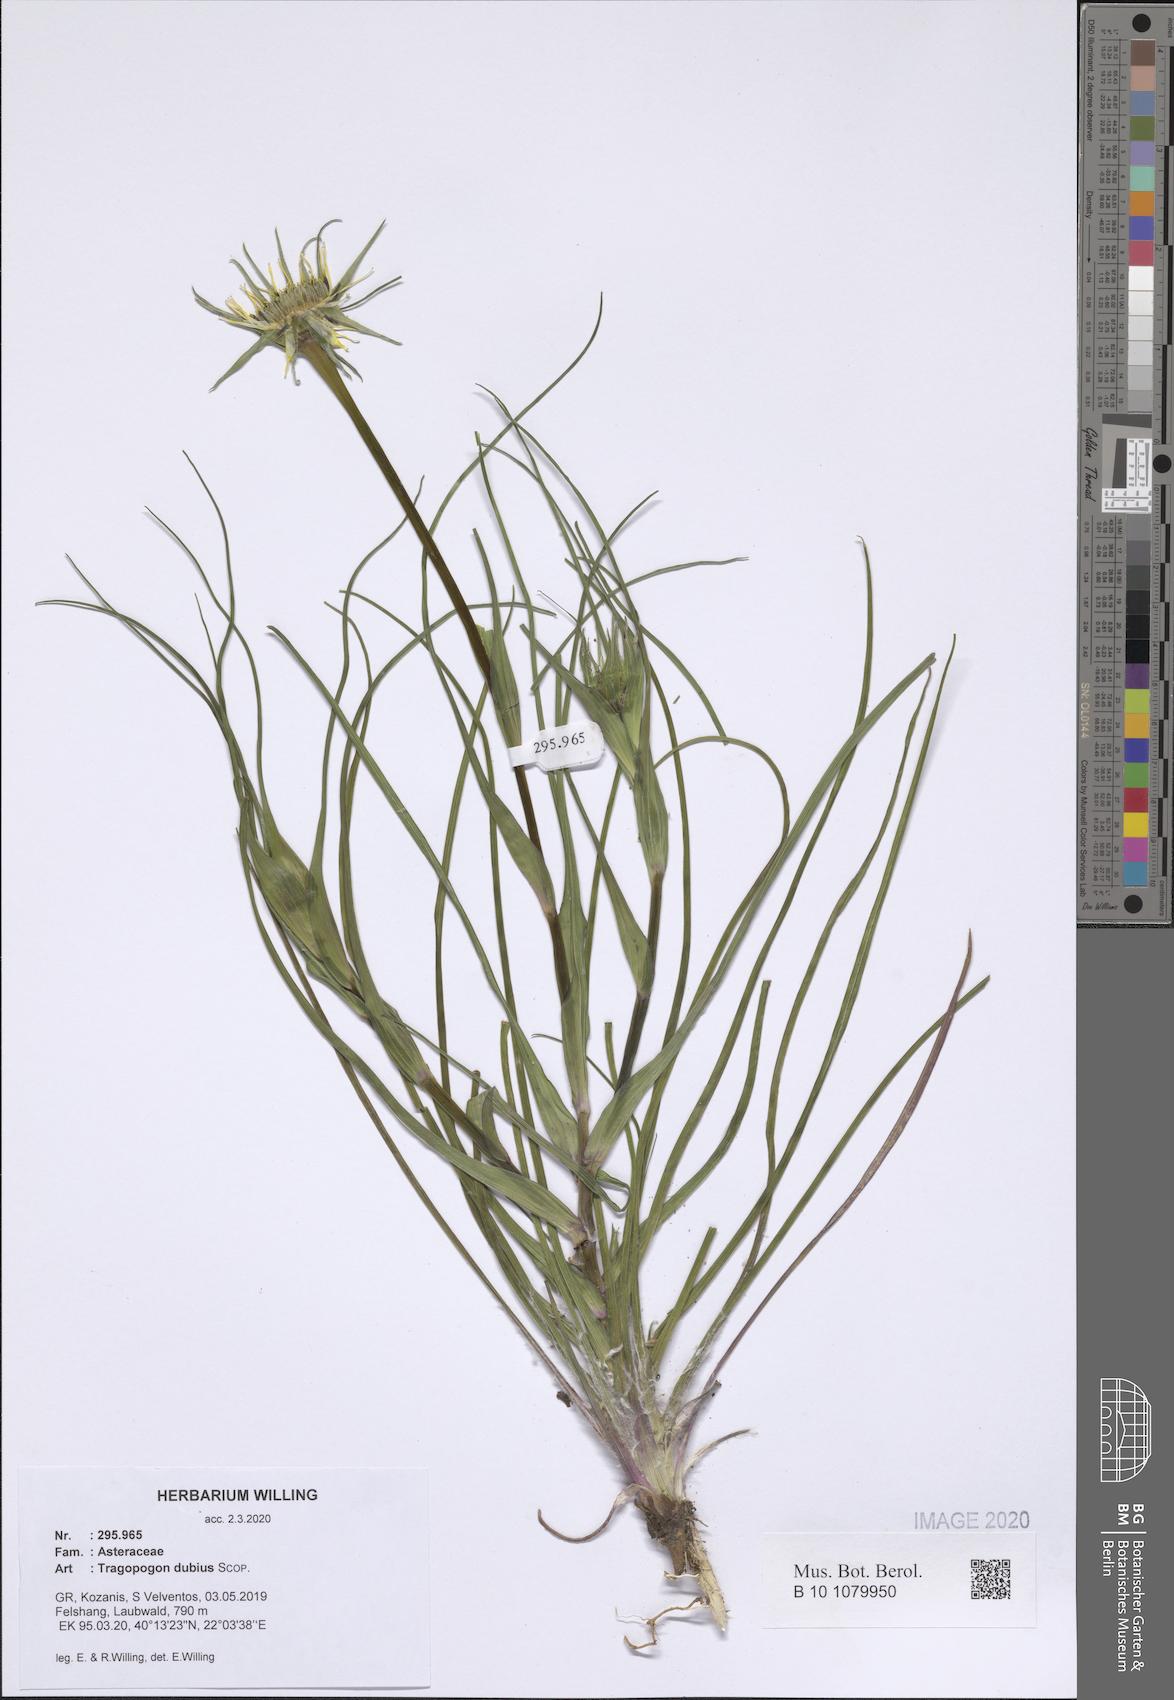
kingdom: Plantae
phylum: Tracheophyta
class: Magnoliopsida
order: Asterales
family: Asteraceae
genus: Tragopogon
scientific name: Tragopogon dubius
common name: Yellow salsify
